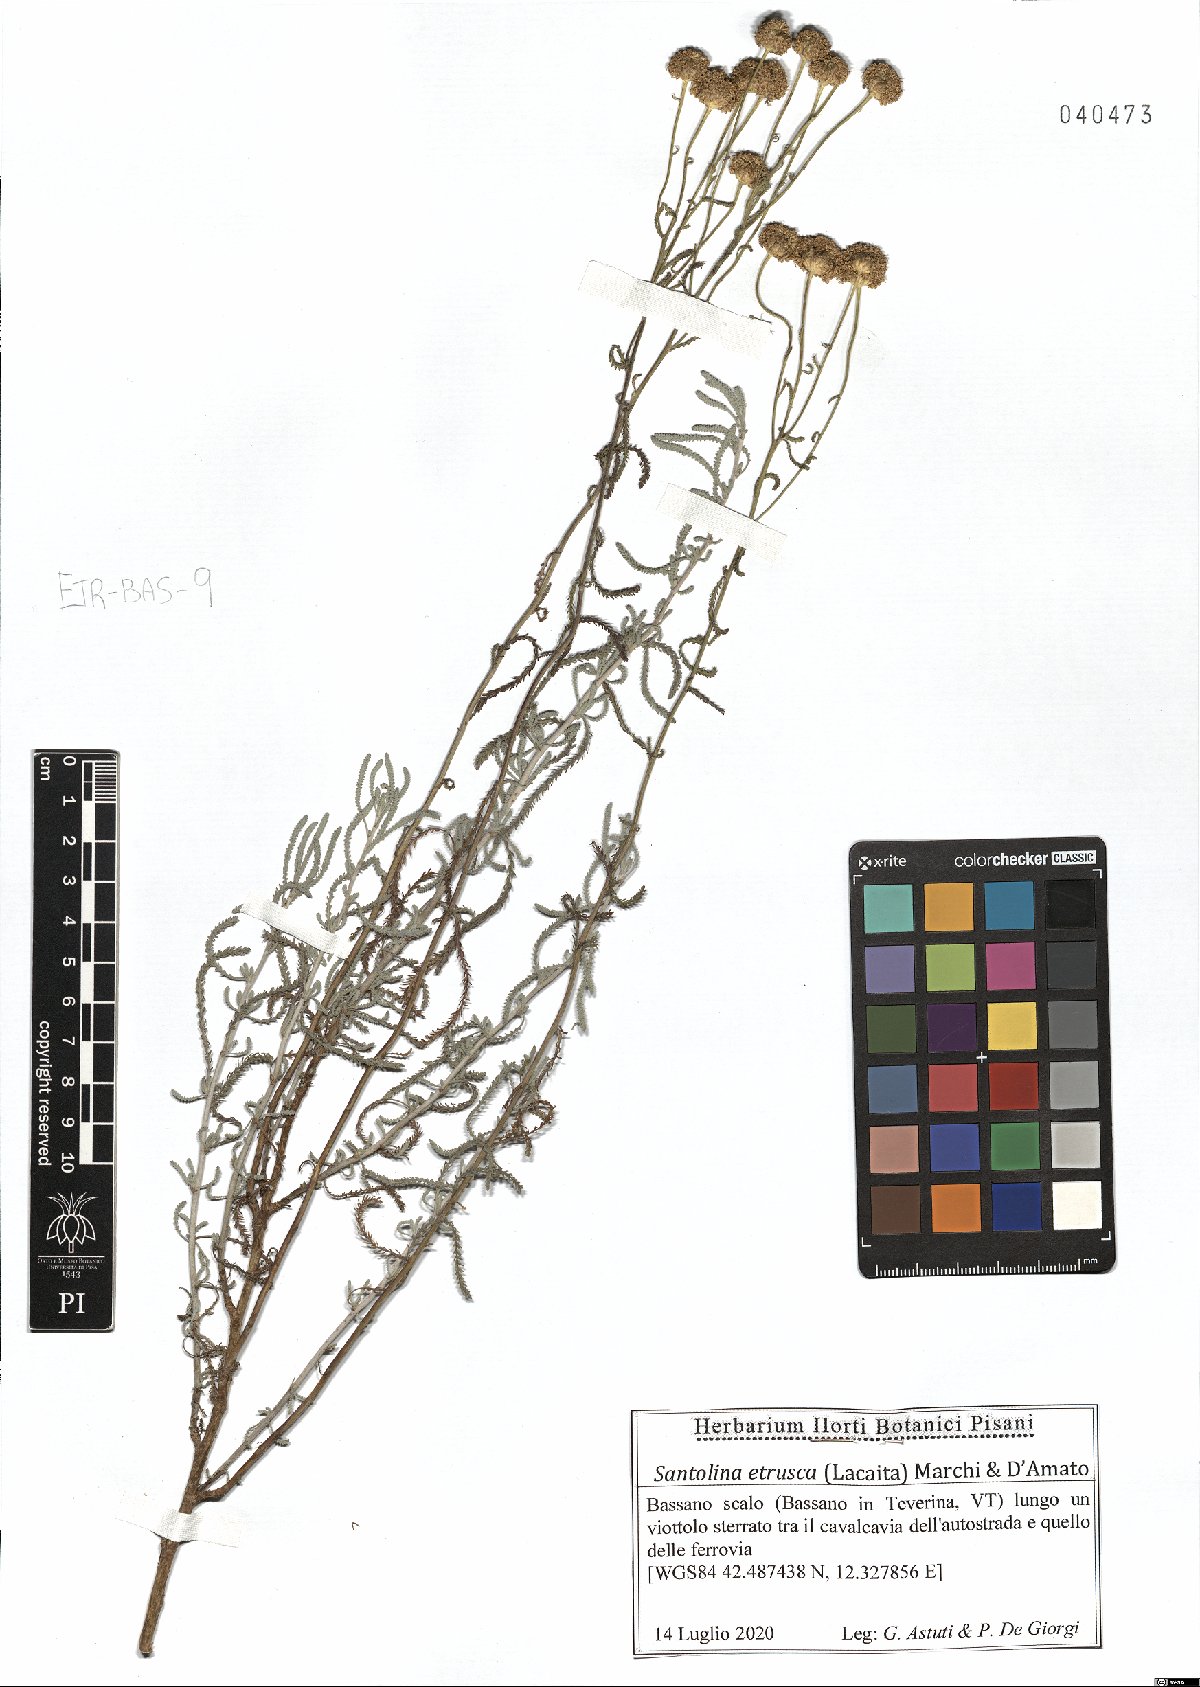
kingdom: Plantae
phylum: Tracheophyta
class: Magnoliopsida
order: Asterales
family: Asteraceae
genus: Santolina
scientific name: Santolina etrusca
